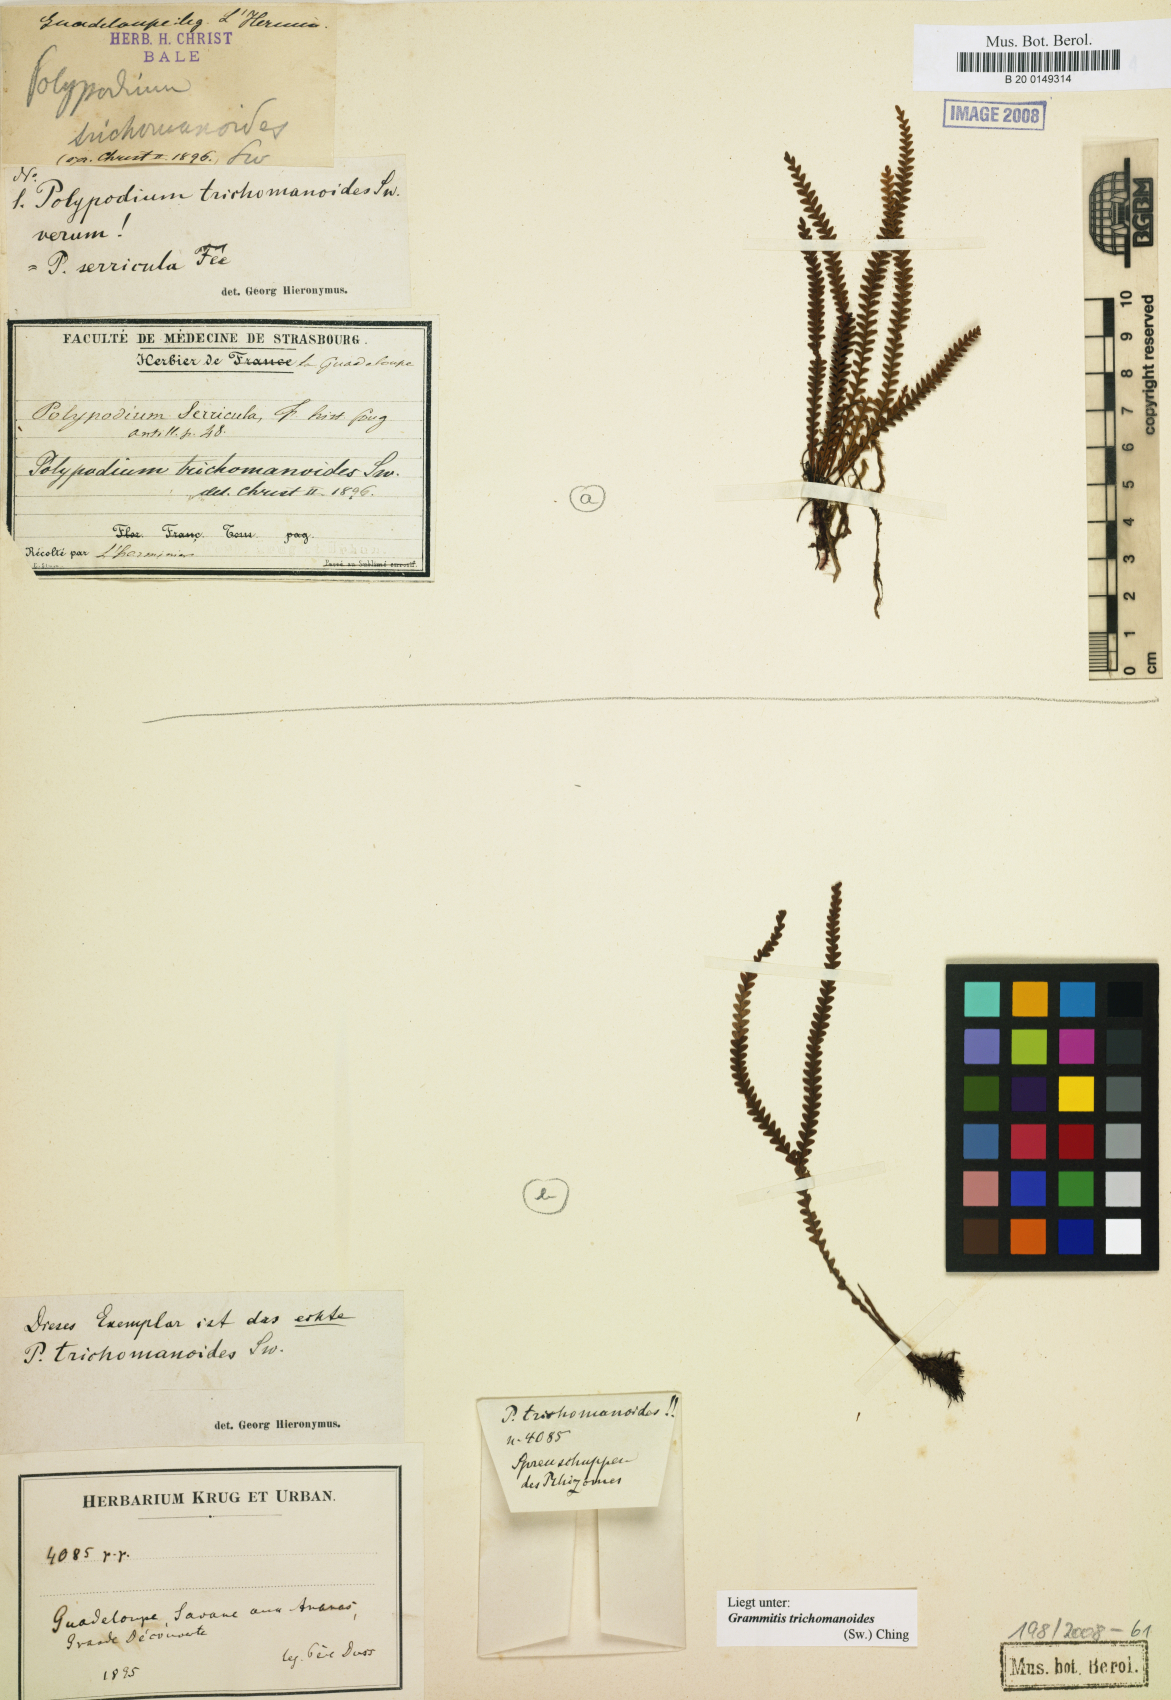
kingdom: Plantae
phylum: Tracheophyta
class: Polypodiopsida
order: Polypodiales
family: Polypodiaceae
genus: Moranopteris
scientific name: Moranopteris serricula
